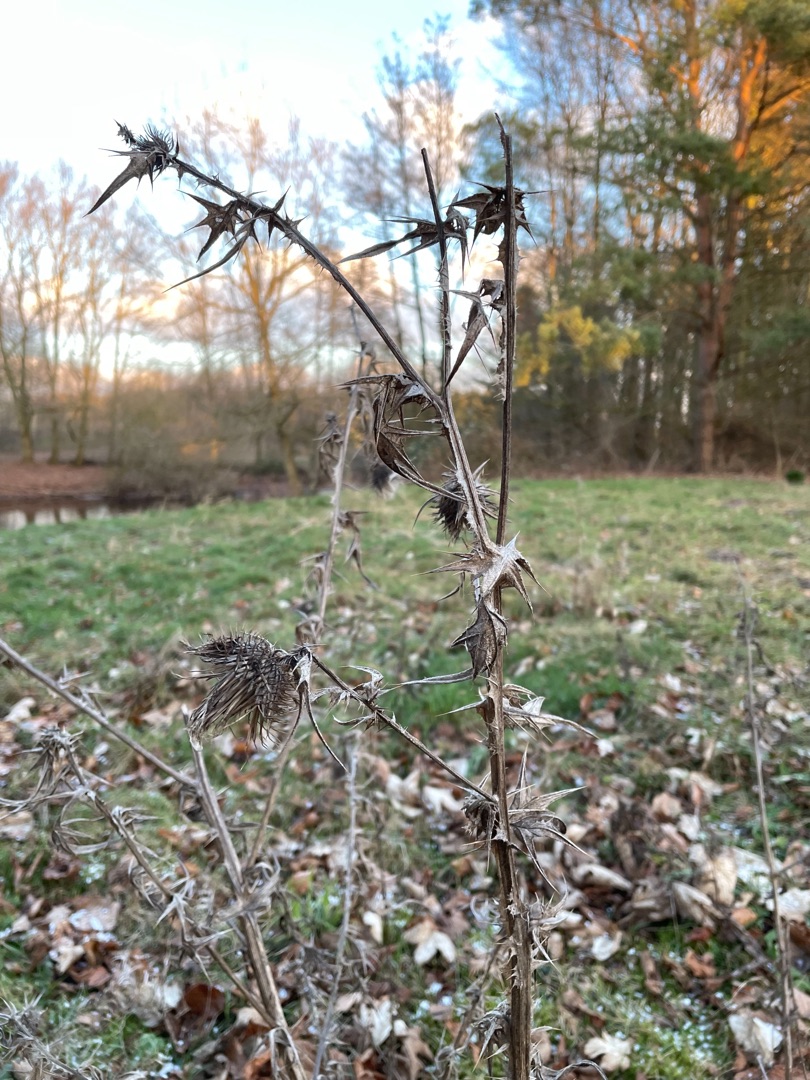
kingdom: Plantae
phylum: Tracheophyta
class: Magnoliopsida
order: Asterales
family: Asteraceae
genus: Cirsium
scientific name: Cirsium vulgare
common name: Horse-tidsel
